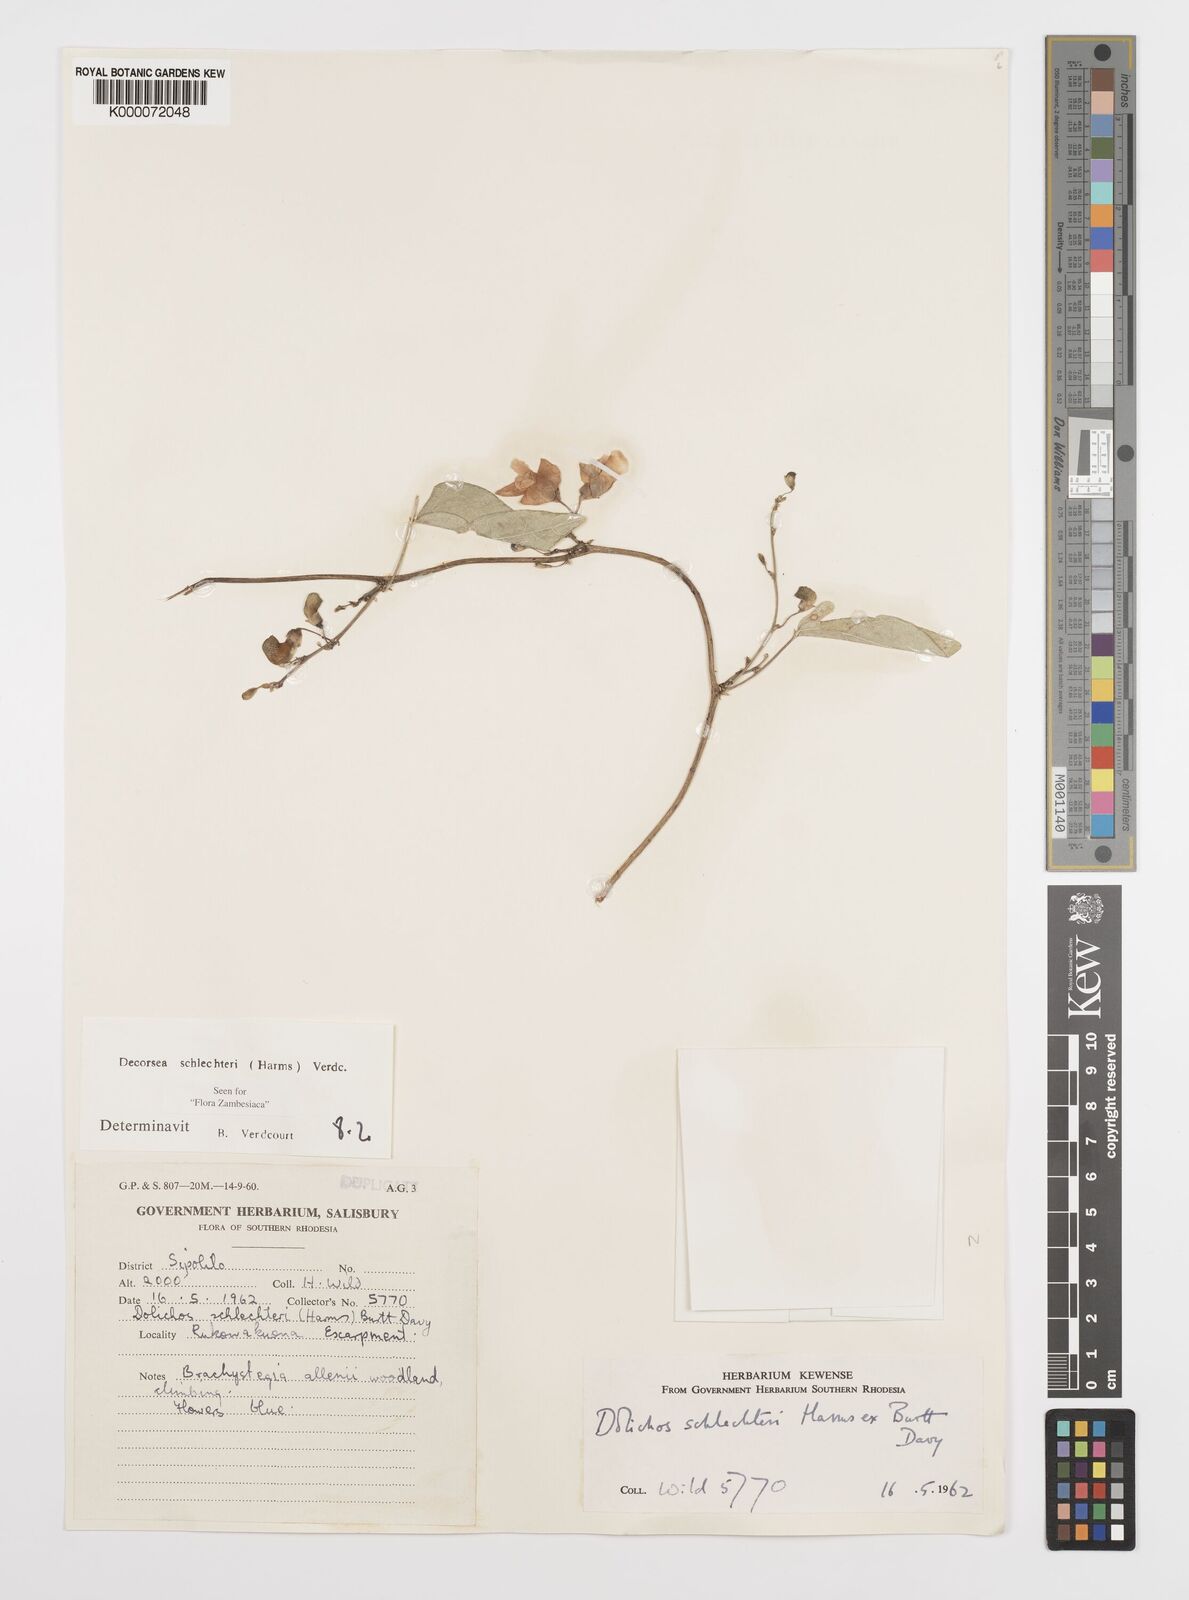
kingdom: Plantae
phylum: Tracheophyta
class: Magnoliopsida
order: Fabales
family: Fabaceae
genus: Decorsea
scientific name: Decorsea schlechteri
